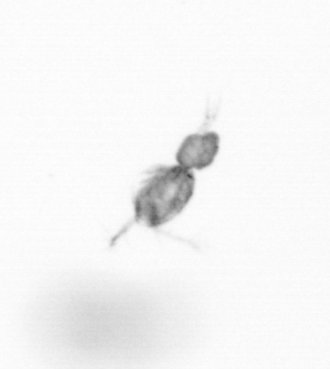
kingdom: Animalia
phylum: Arthropoda
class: Copepoda
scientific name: Copepoda
